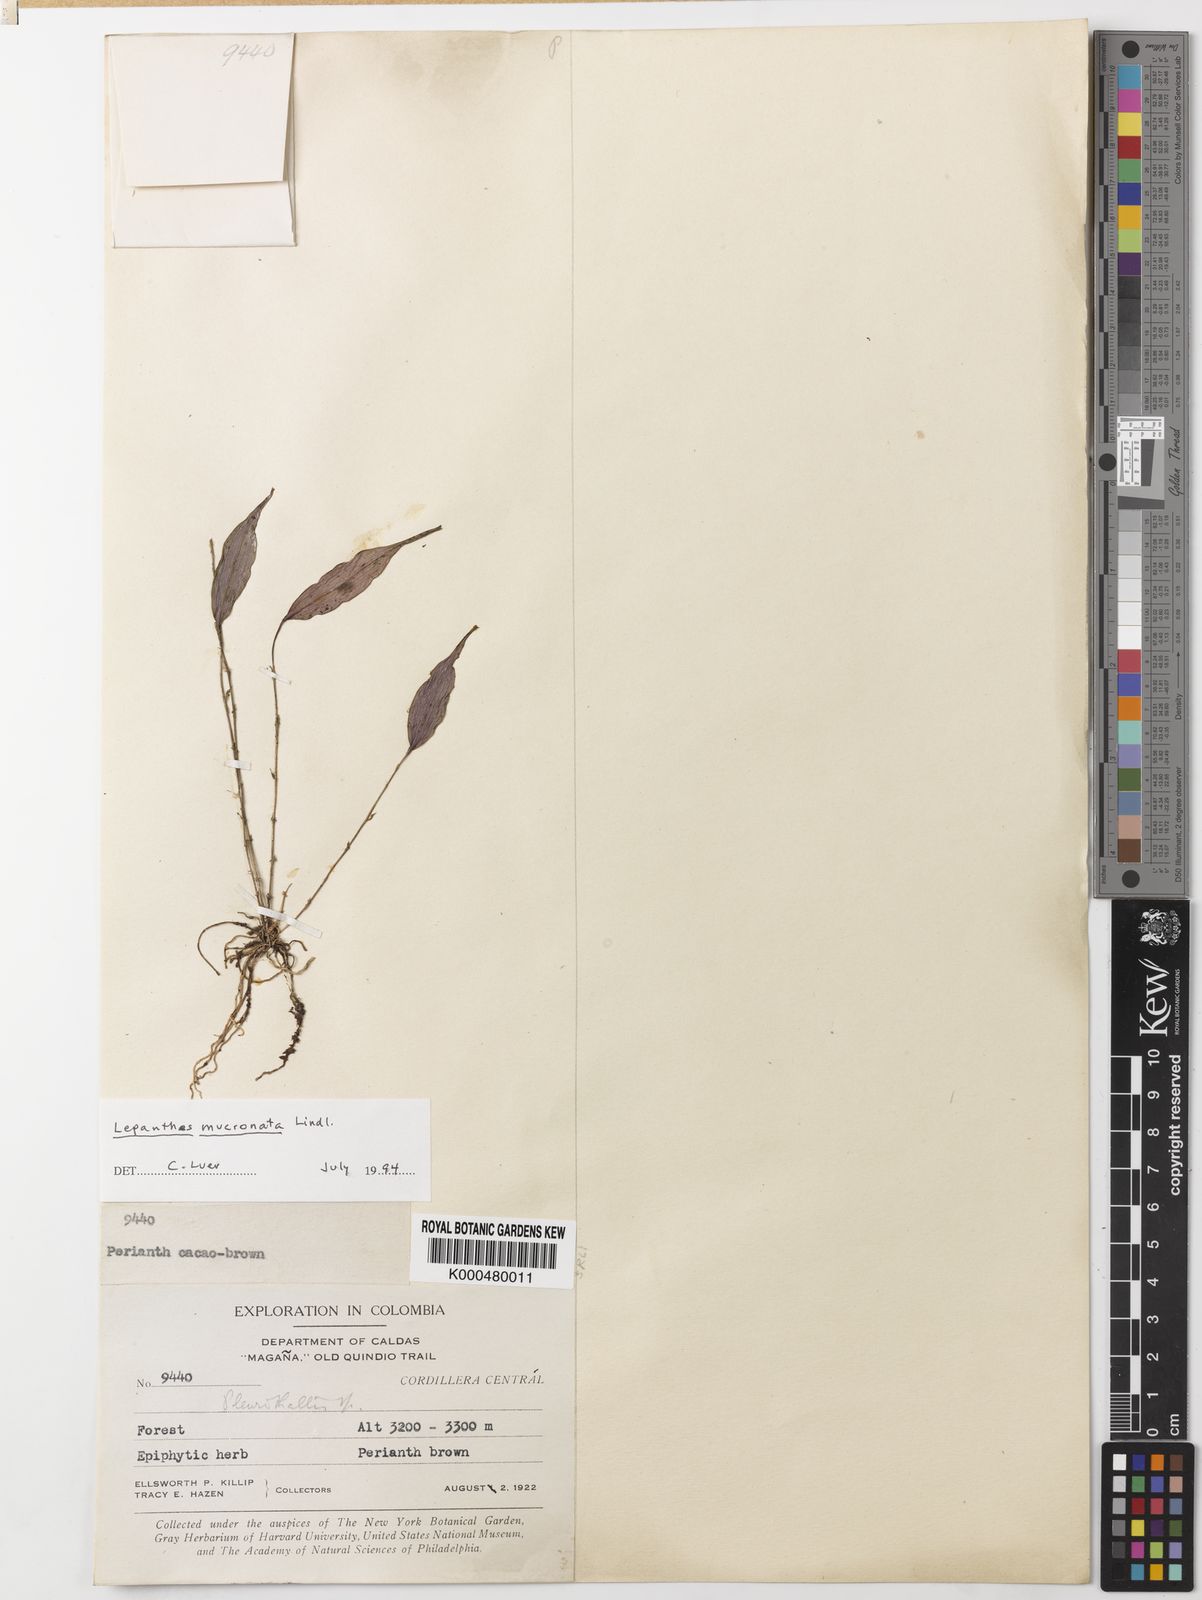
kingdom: Plantae
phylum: Tracheophyta
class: Liliopsida
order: Asparagales
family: Orchidaceae
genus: Lepanthes
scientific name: Lepanthes mucronata
